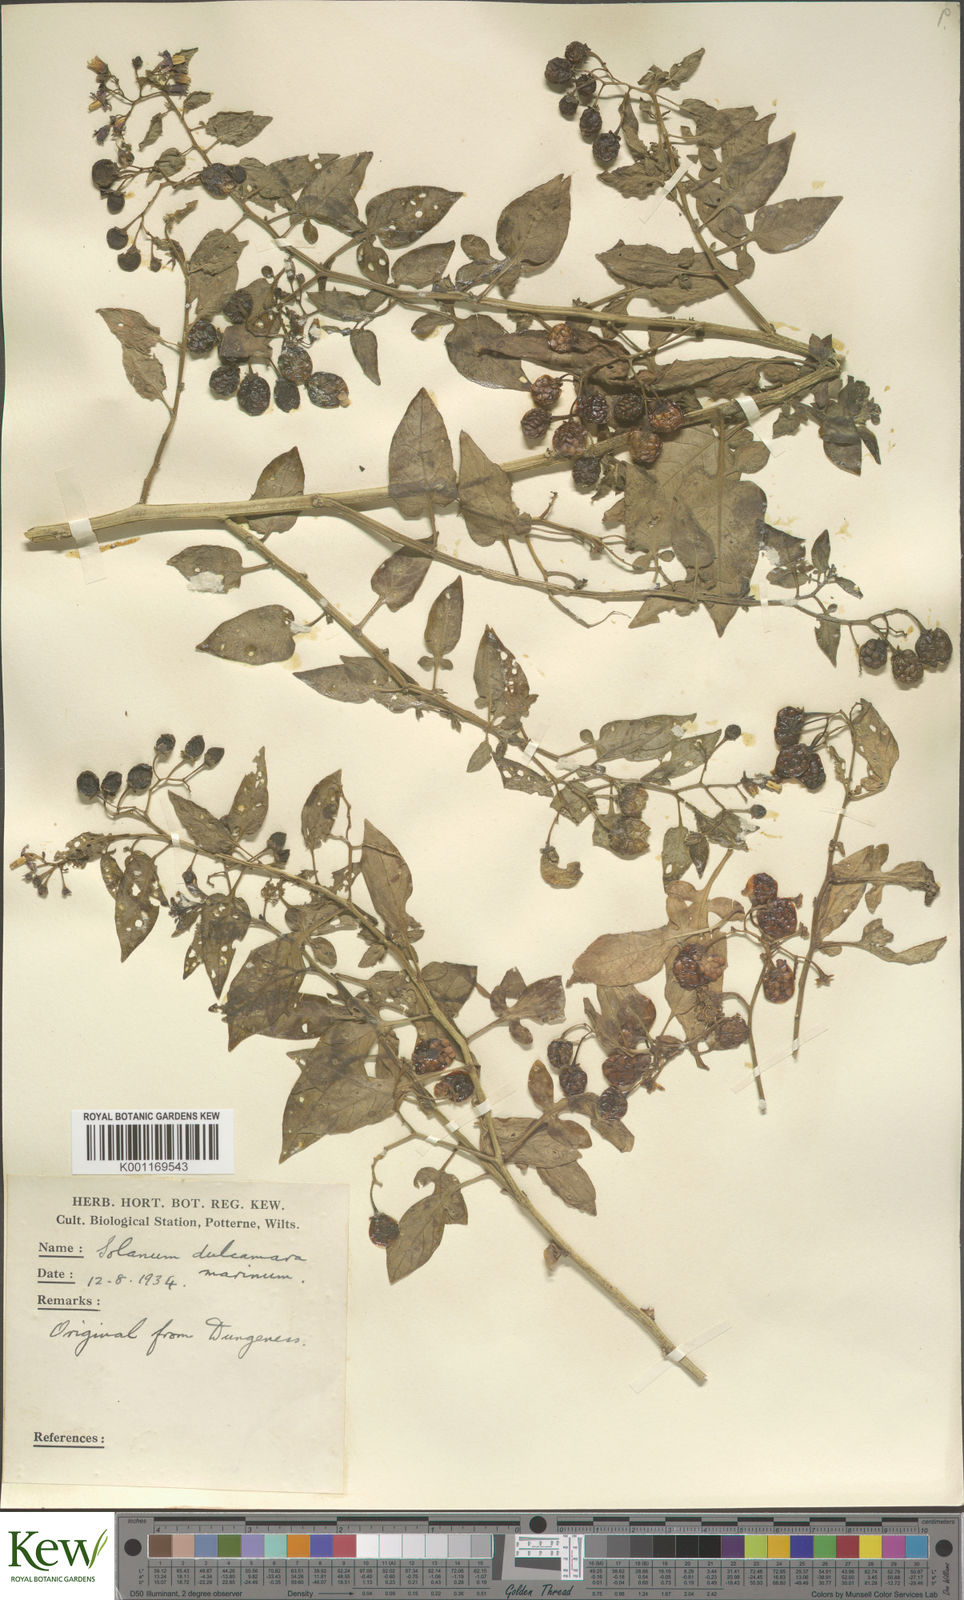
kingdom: Plantae
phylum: Tracheophyta
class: Magnoliopsida
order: Solanales
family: Solanaceae
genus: Solanum
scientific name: Solanum dulcamara
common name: Climbing nightshade
